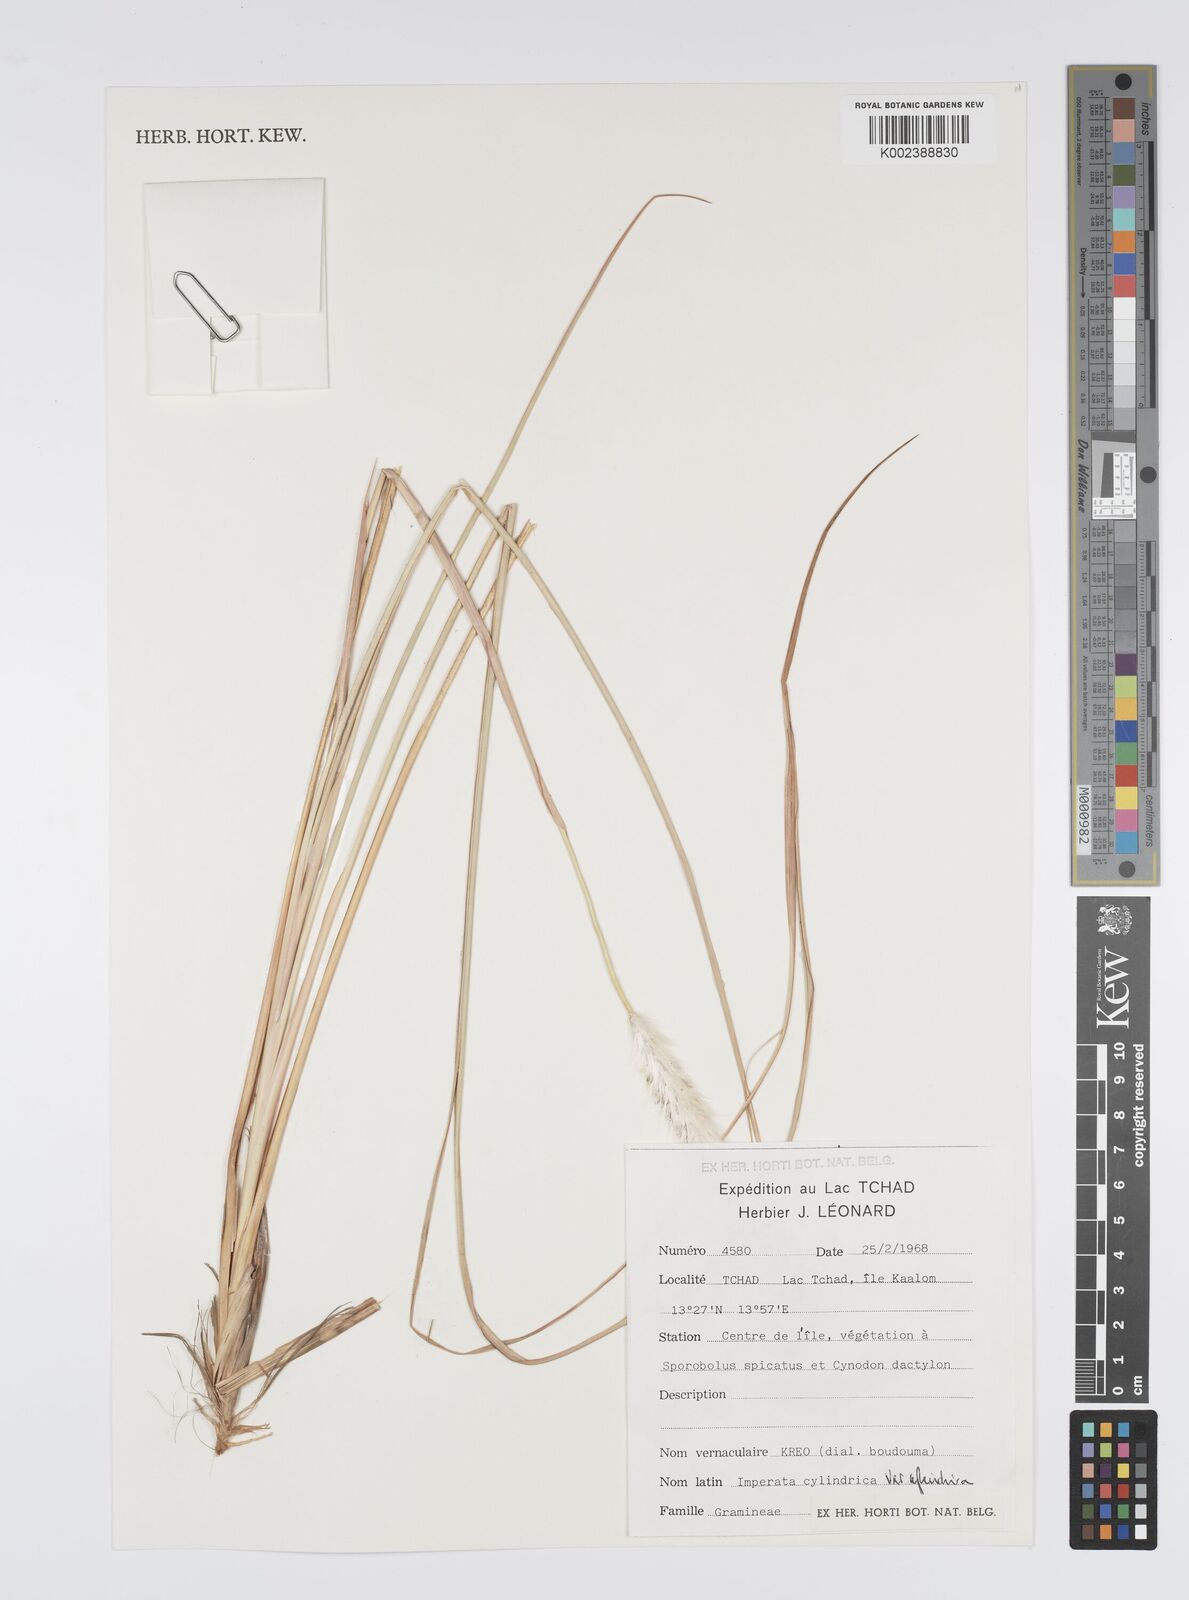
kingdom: Plantae
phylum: Tracheophyta
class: Liliopsida
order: Poales
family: Poaceae
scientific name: Poaceae
